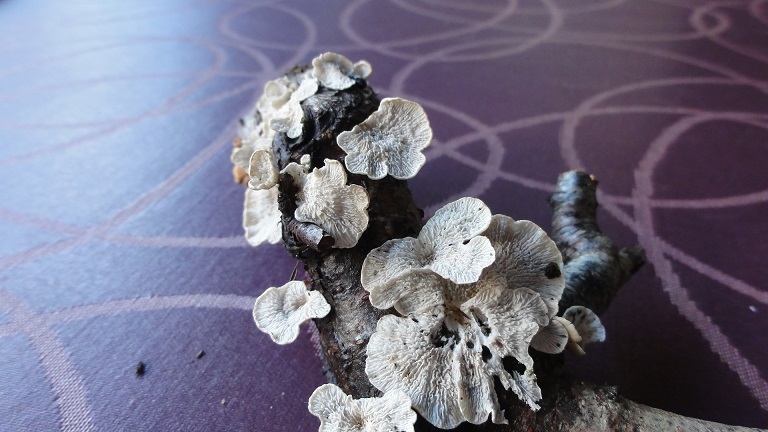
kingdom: Fungi
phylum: Basidiomycota
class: Agaricomycetes
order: Amylocorticiales
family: Amylocorticiaceae
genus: Plicaturopsis
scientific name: Plicaturopsis crispa
